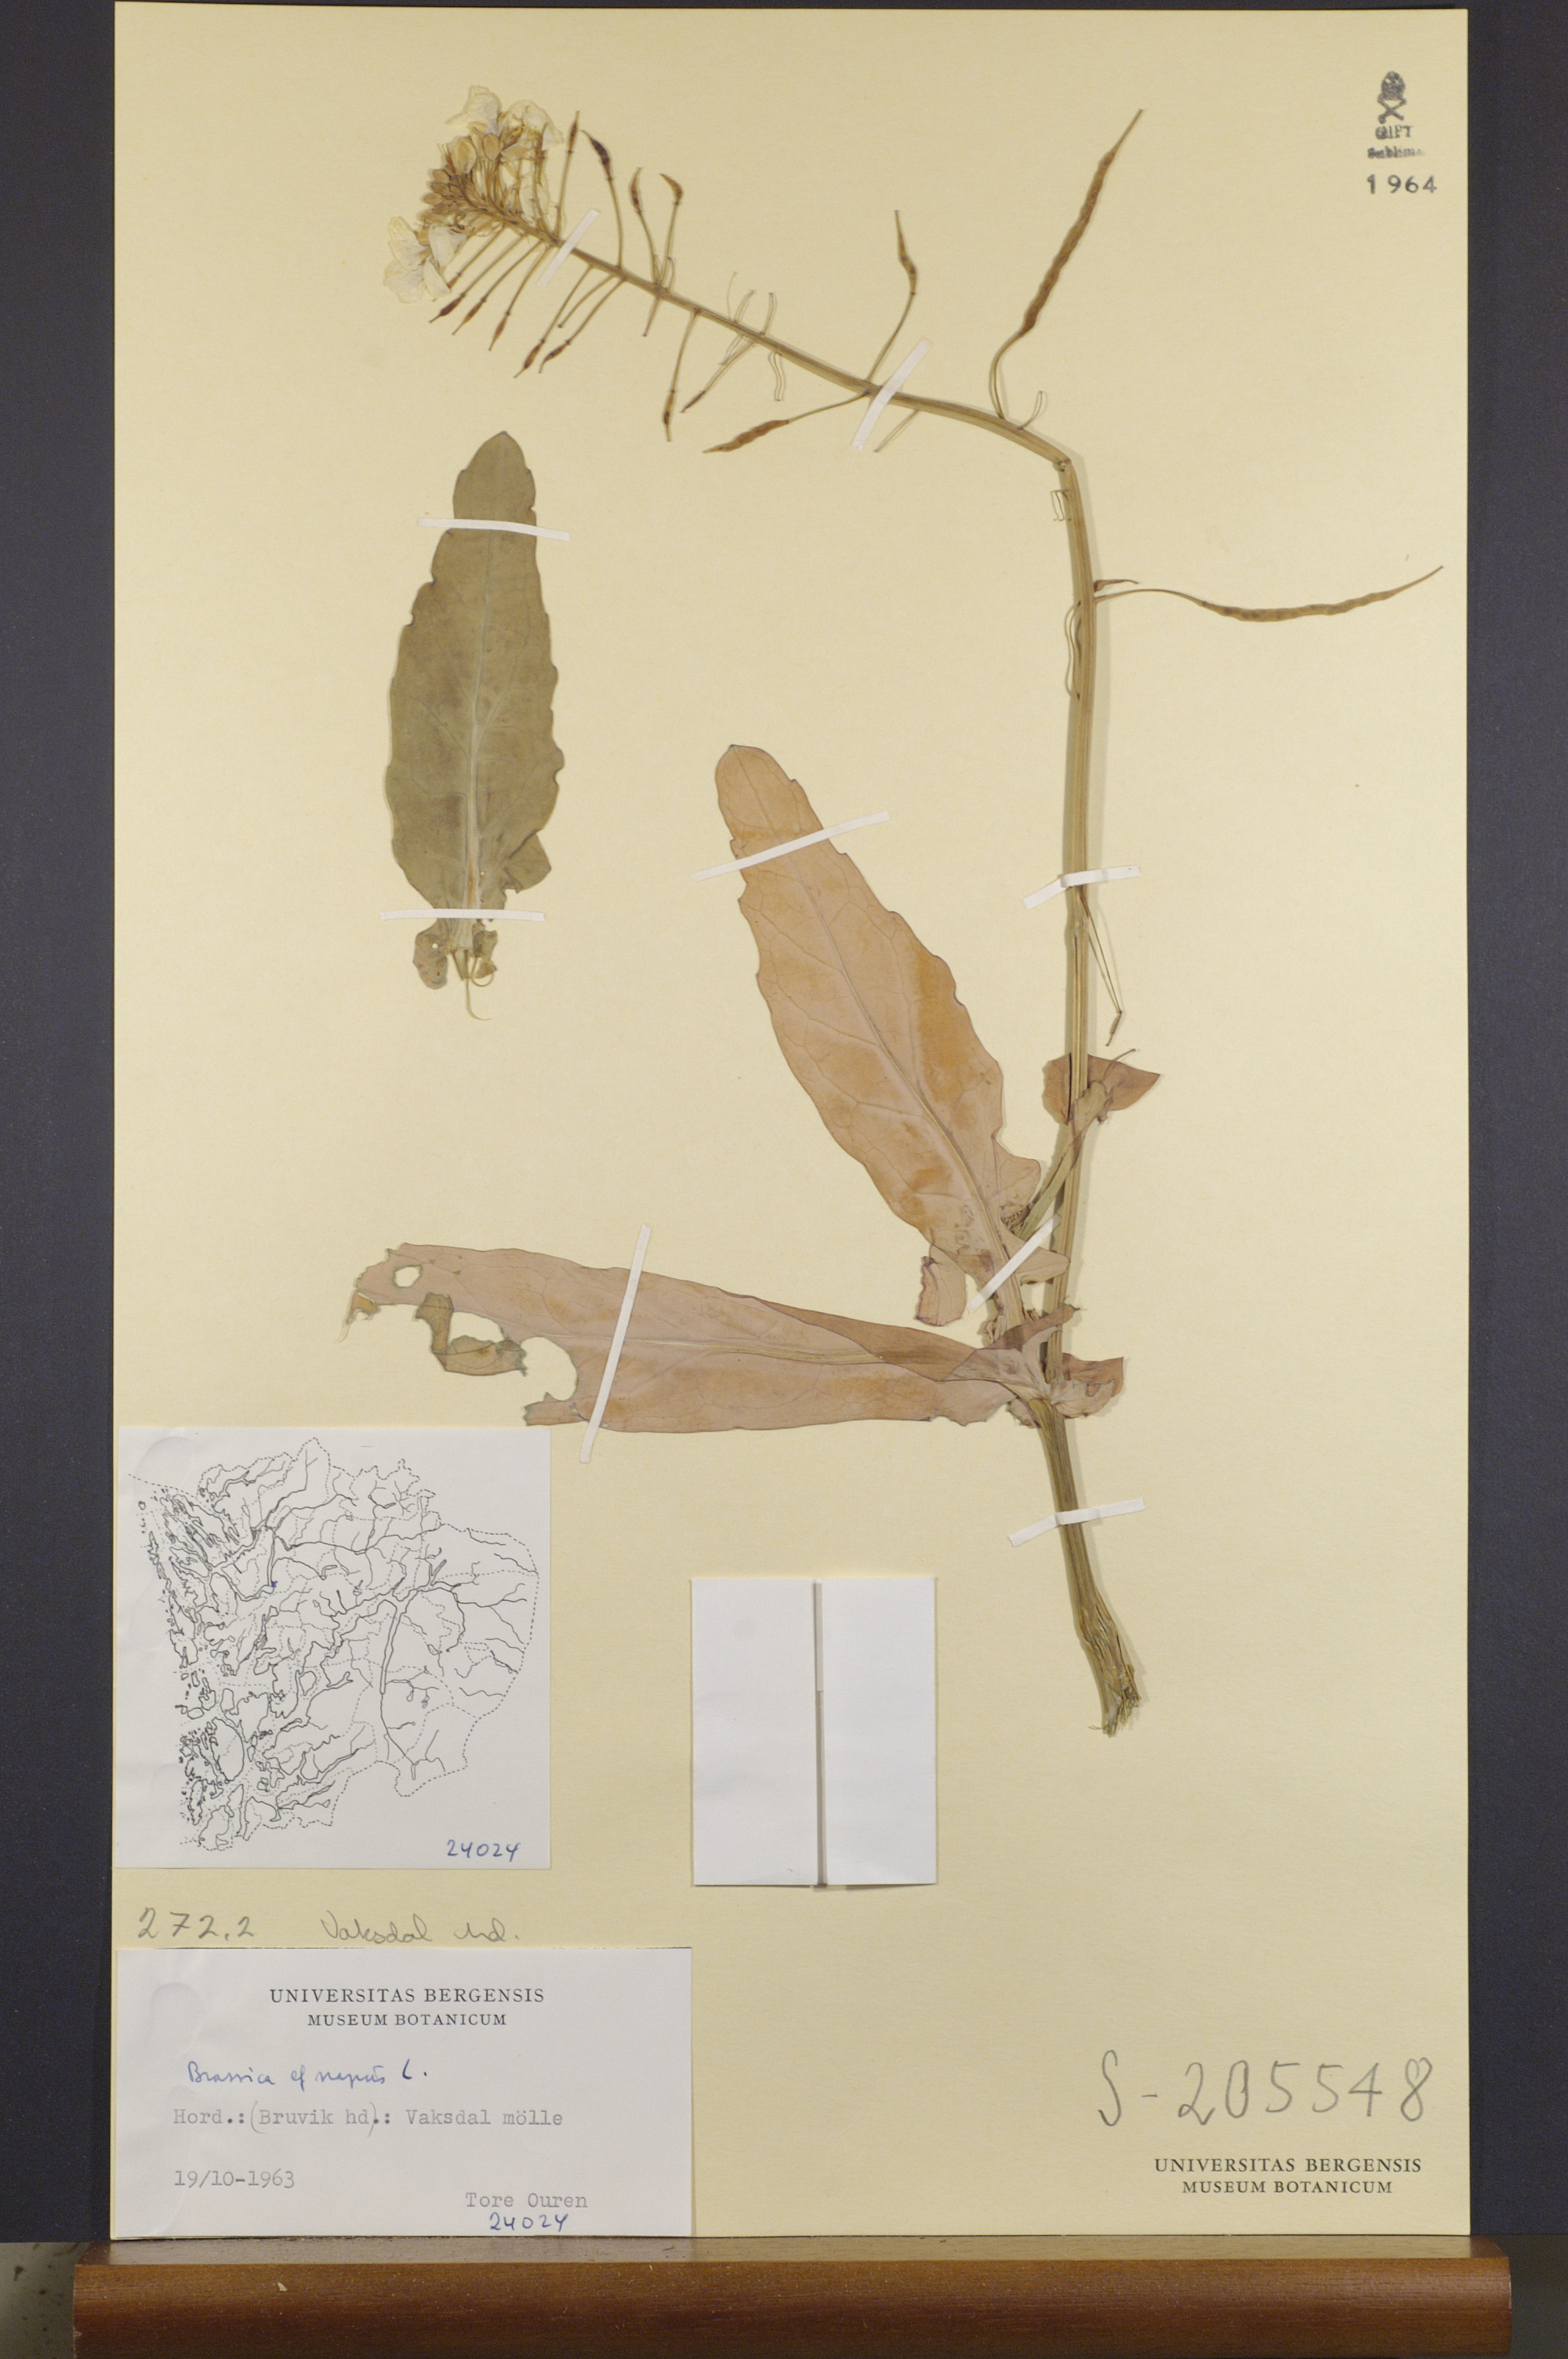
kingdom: Plantae
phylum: Tracheophyta
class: Magnoliopsida
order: Brassicales
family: Brassicaceae
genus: Brassica
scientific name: Brassica napus
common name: Rape
